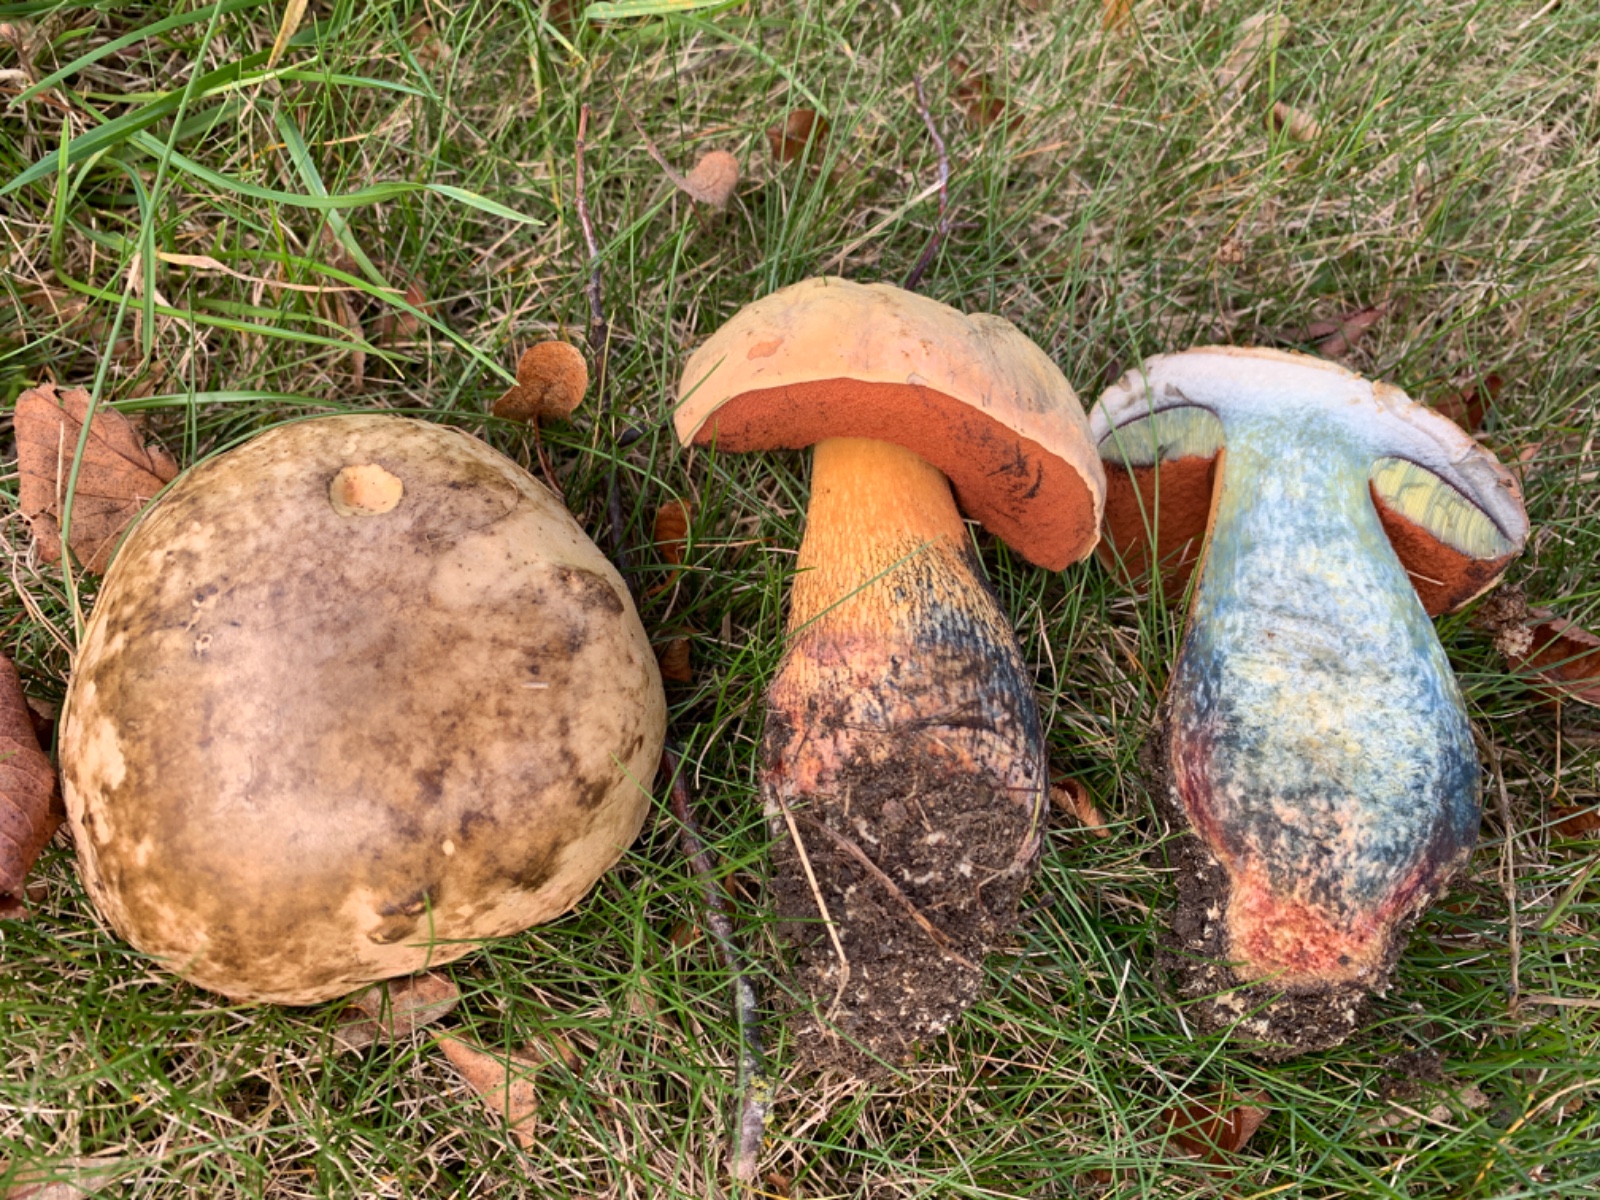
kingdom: Fungi
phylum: Basidiomycota
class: Agaricomycetes
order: Boletales
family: Boletaceae
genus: Suillellus
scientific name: Suillellus luridus
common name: netstokket indigorørhat
